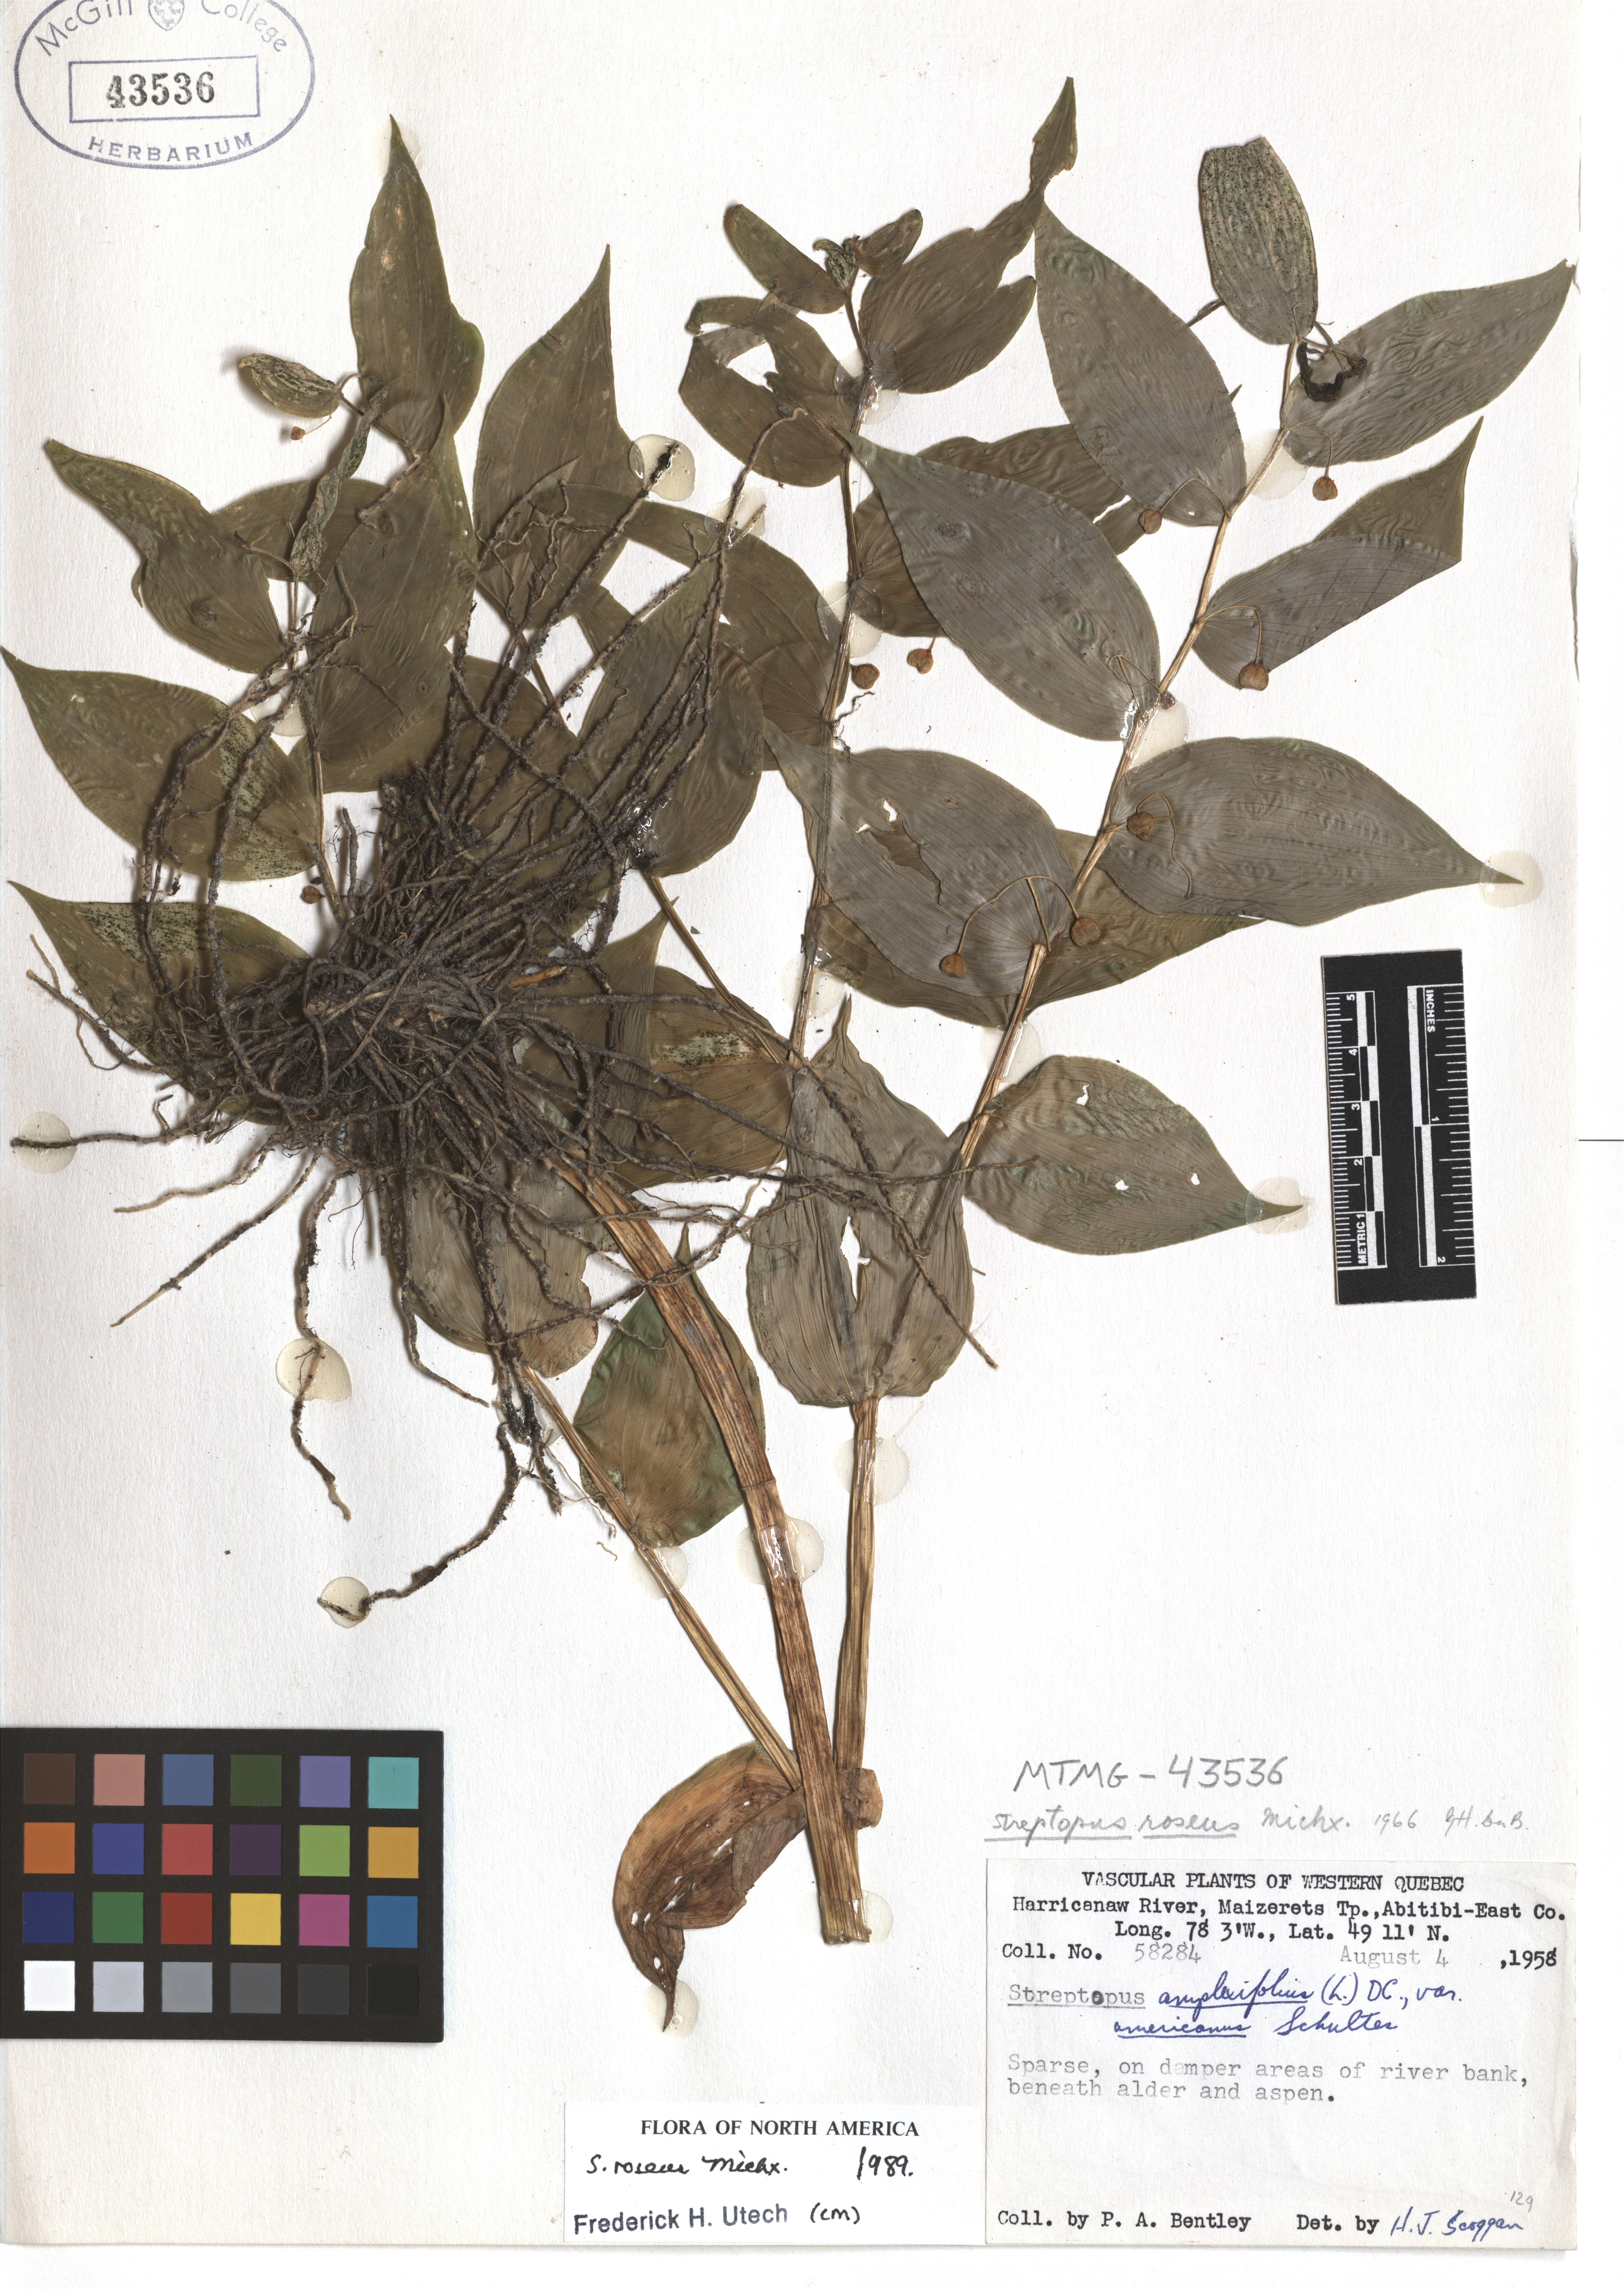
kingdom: Plantae
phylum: Tracheophyta
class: Liliopsida
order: Liliales
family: Liliaceae
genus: Streptopus
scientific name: Streptopus lanceolatus
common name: Rose mandarin
